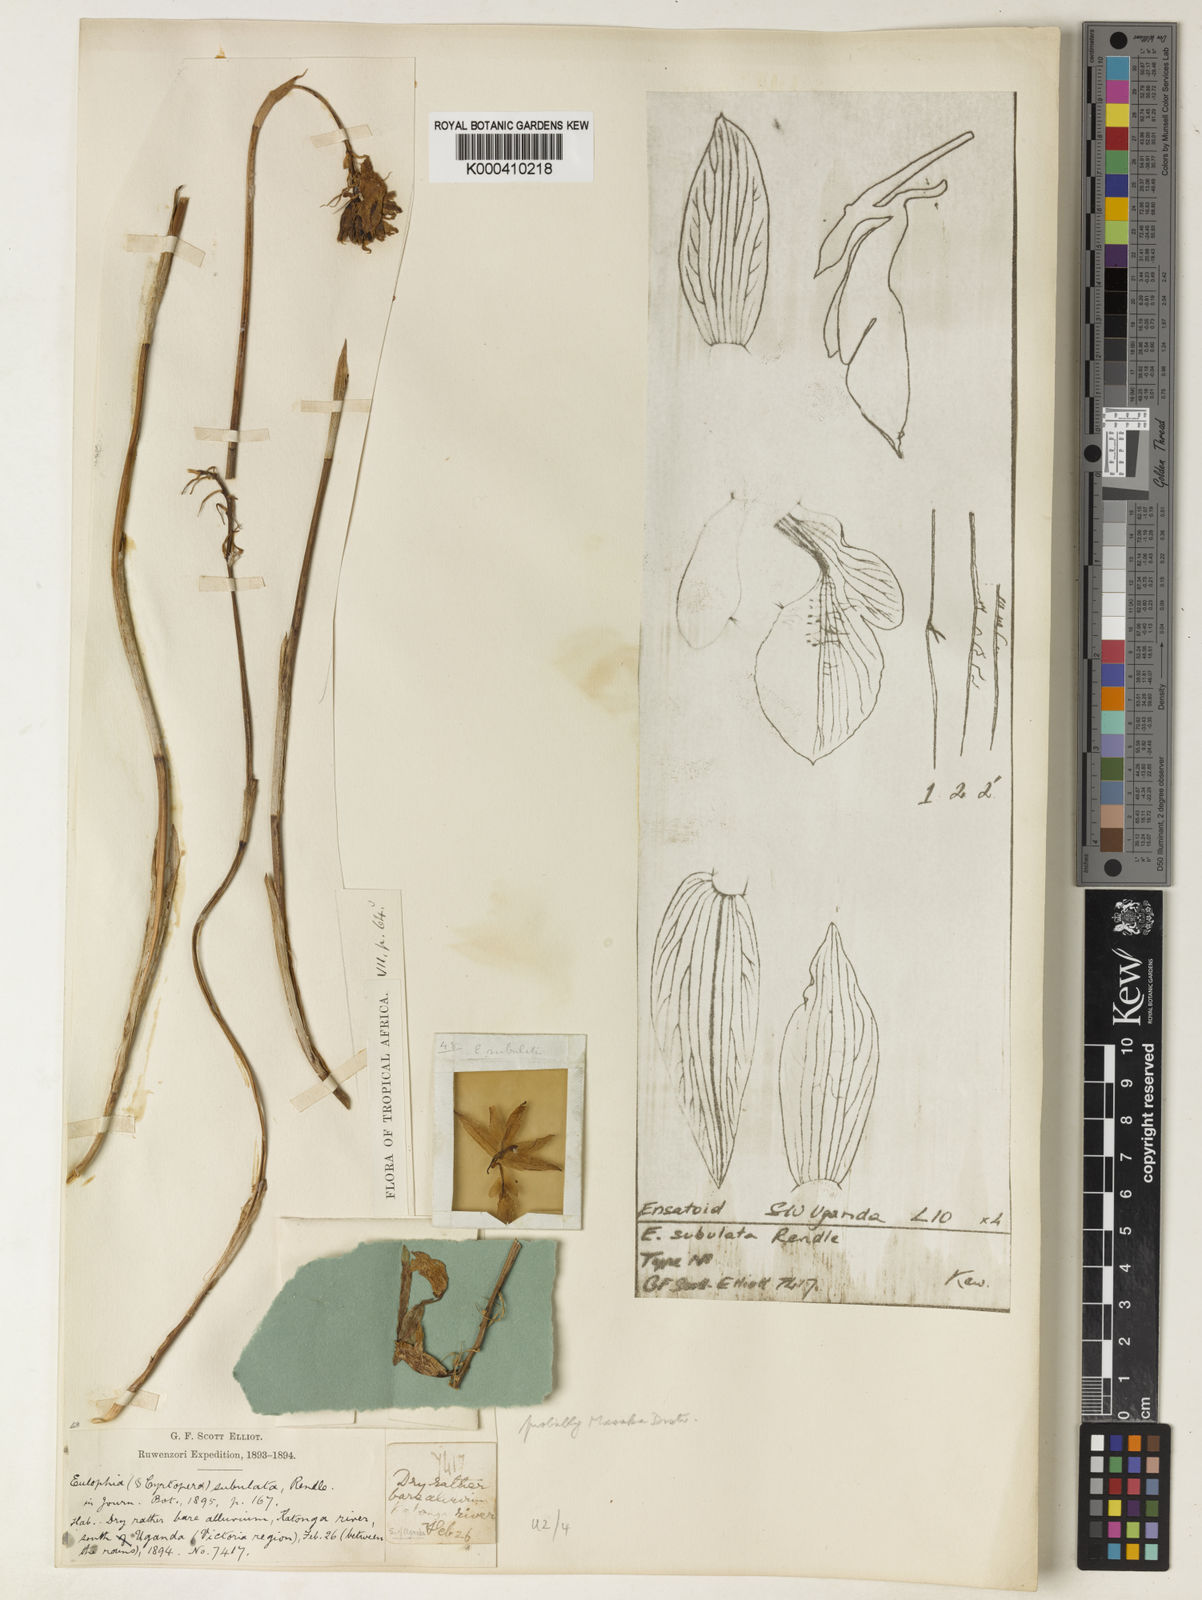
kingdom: Plantae
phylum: Tracheophyta
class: Liliopsida
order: Asparagales
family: Orchidaceae
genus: Eulophia
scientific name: Eulophia subulata
